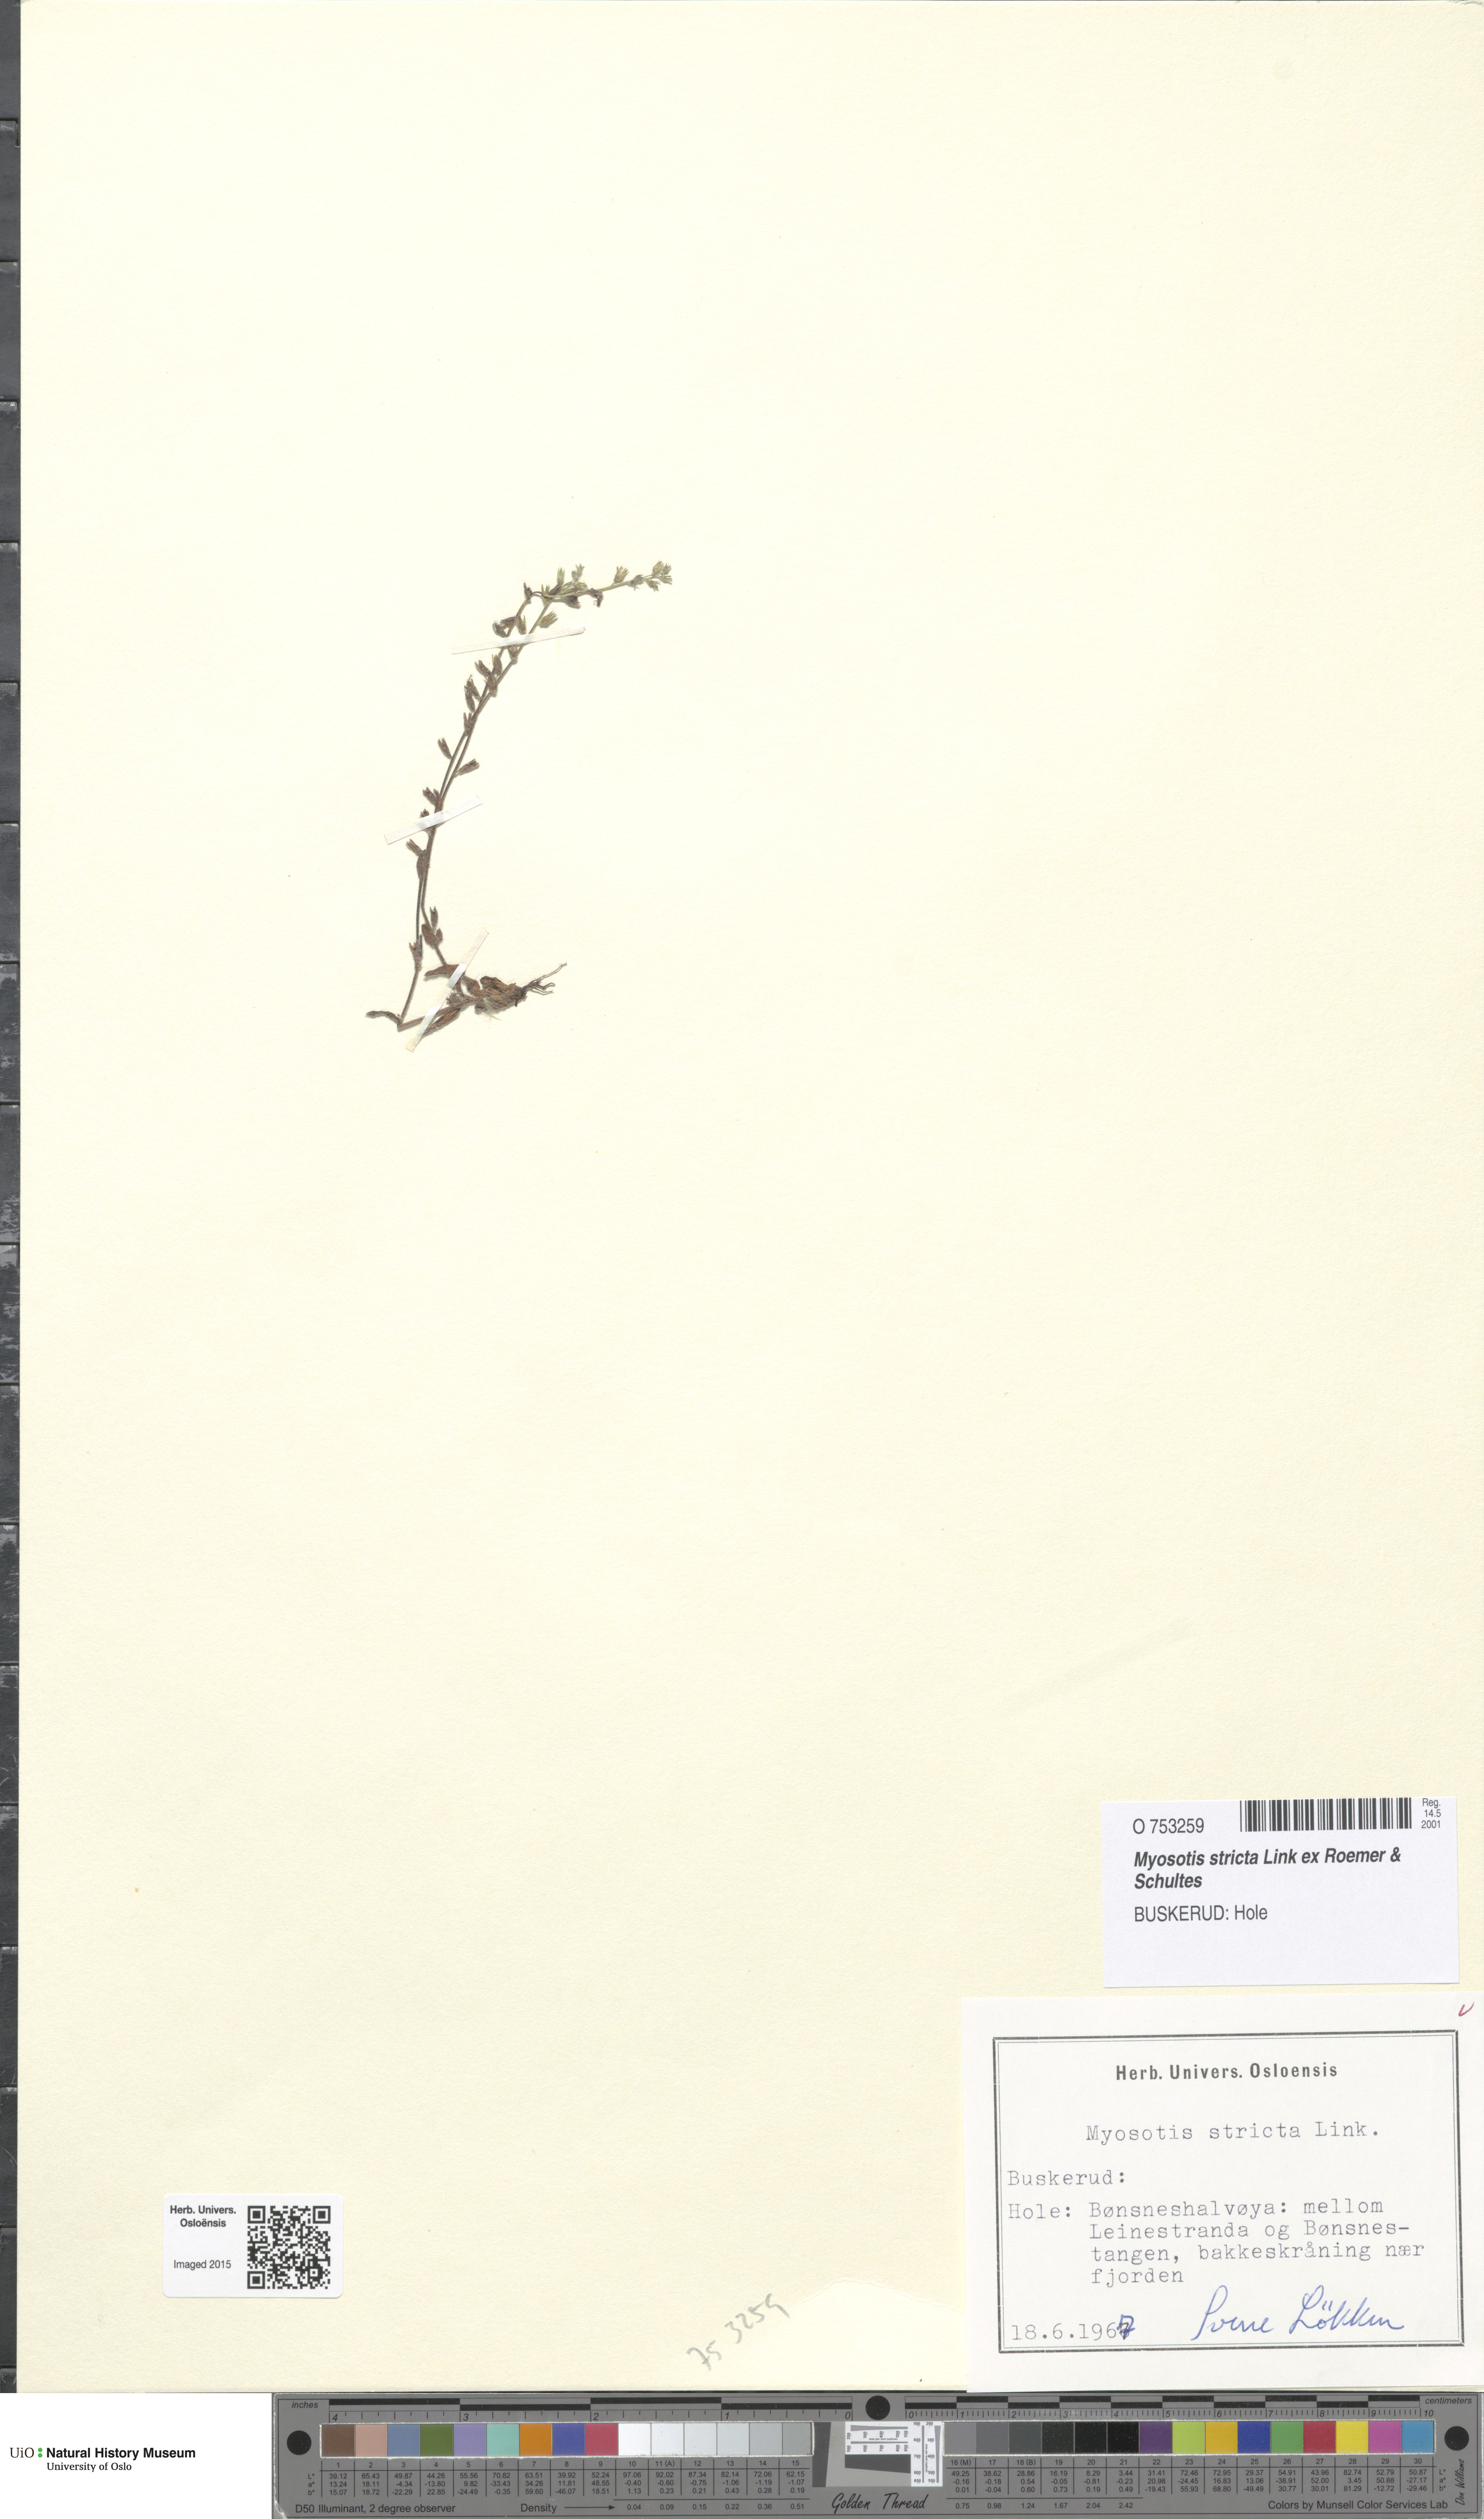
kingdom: Plantae
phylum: Tracheophyta
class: Magnoliopsida
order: Boraginales
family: Boraginaceae
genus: Myosotis
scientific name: Myosotis stricta
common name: Strict forget-me-not
